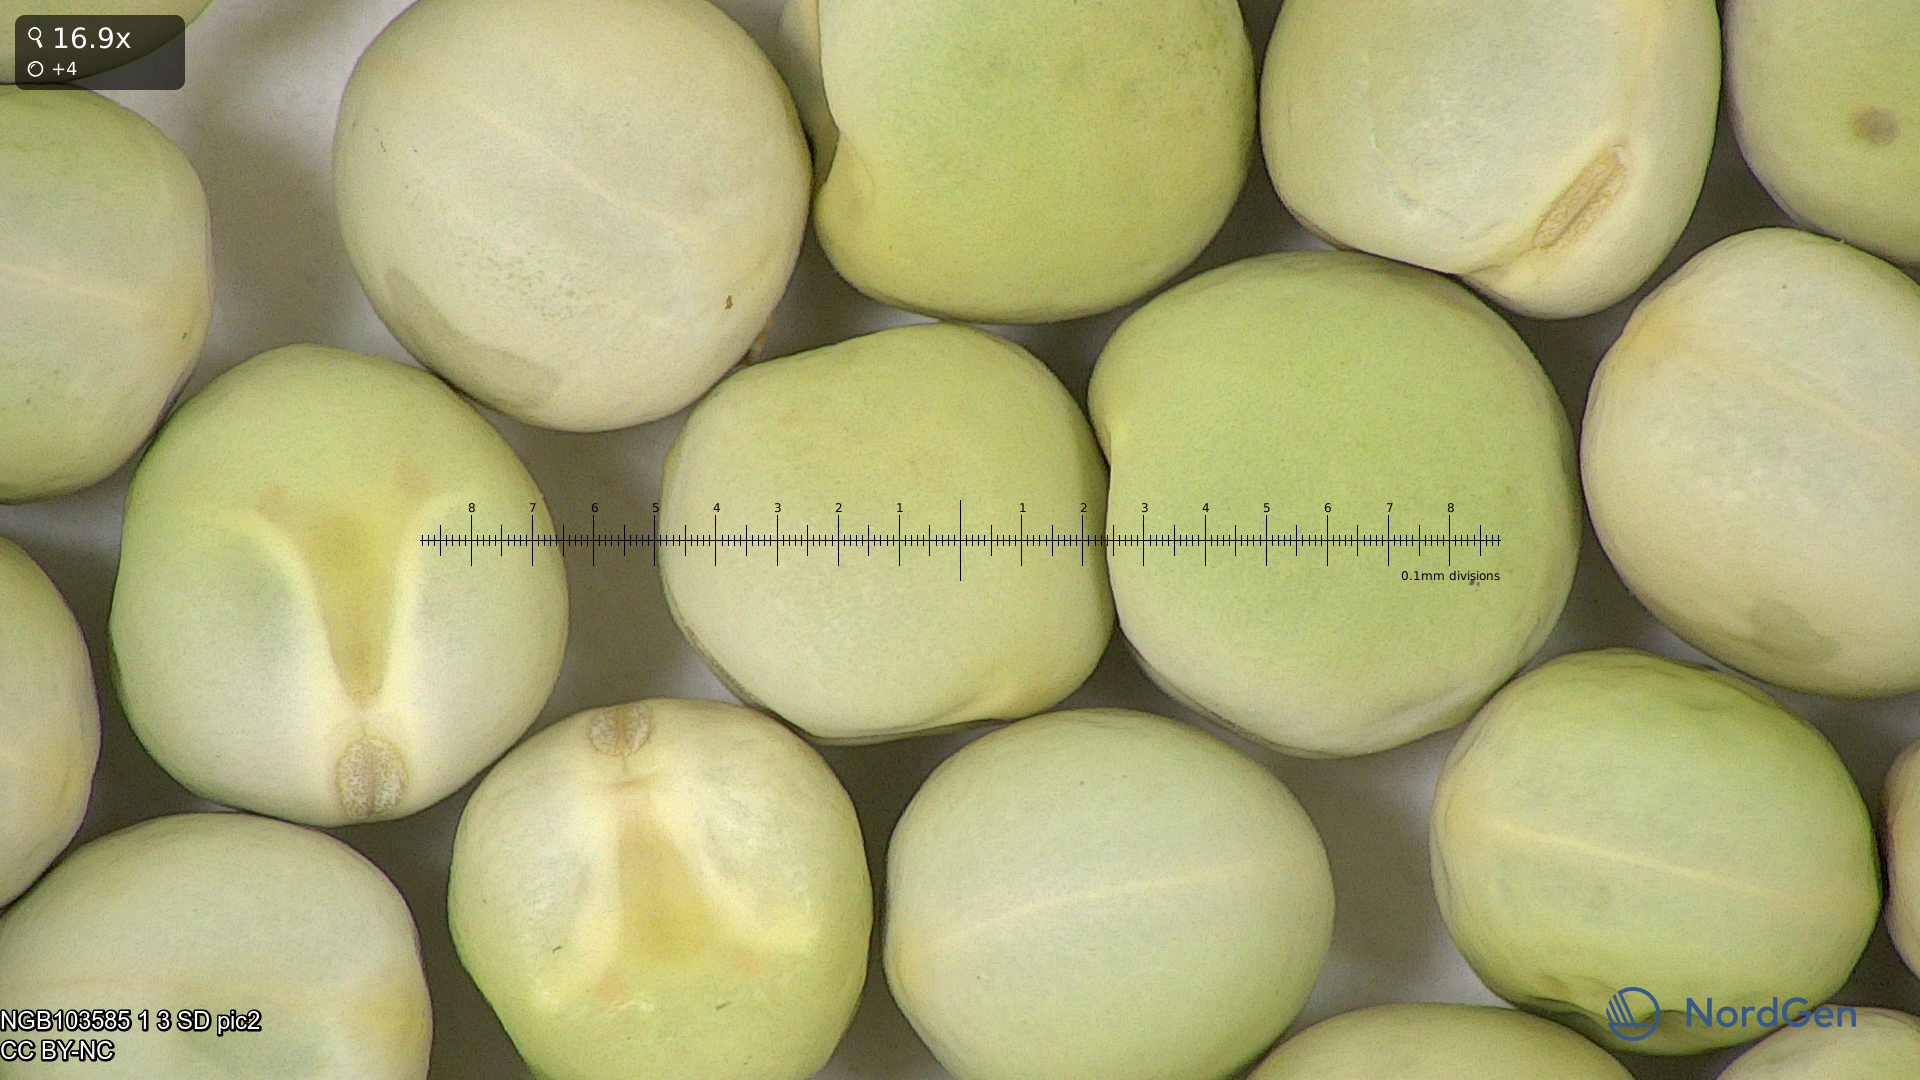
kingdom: Plantae
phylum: Tracheophyta
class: Magnoliopsida
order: Fabales
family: Fabaceae
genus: Lathyrus
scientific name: Lathyrus oleraceus
